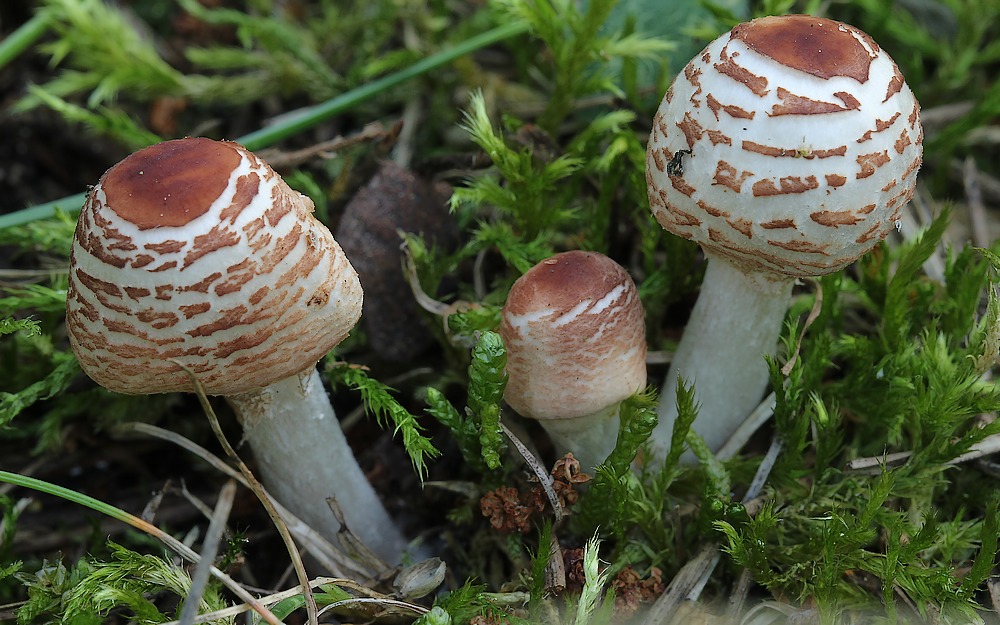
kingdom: Fungi
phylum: Basidiomycota
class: Agaricomycetes
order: Agaricales
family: Agaricaceae
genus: Lepiota
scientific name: Lepiota cristata
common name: stinkende parasolhat
